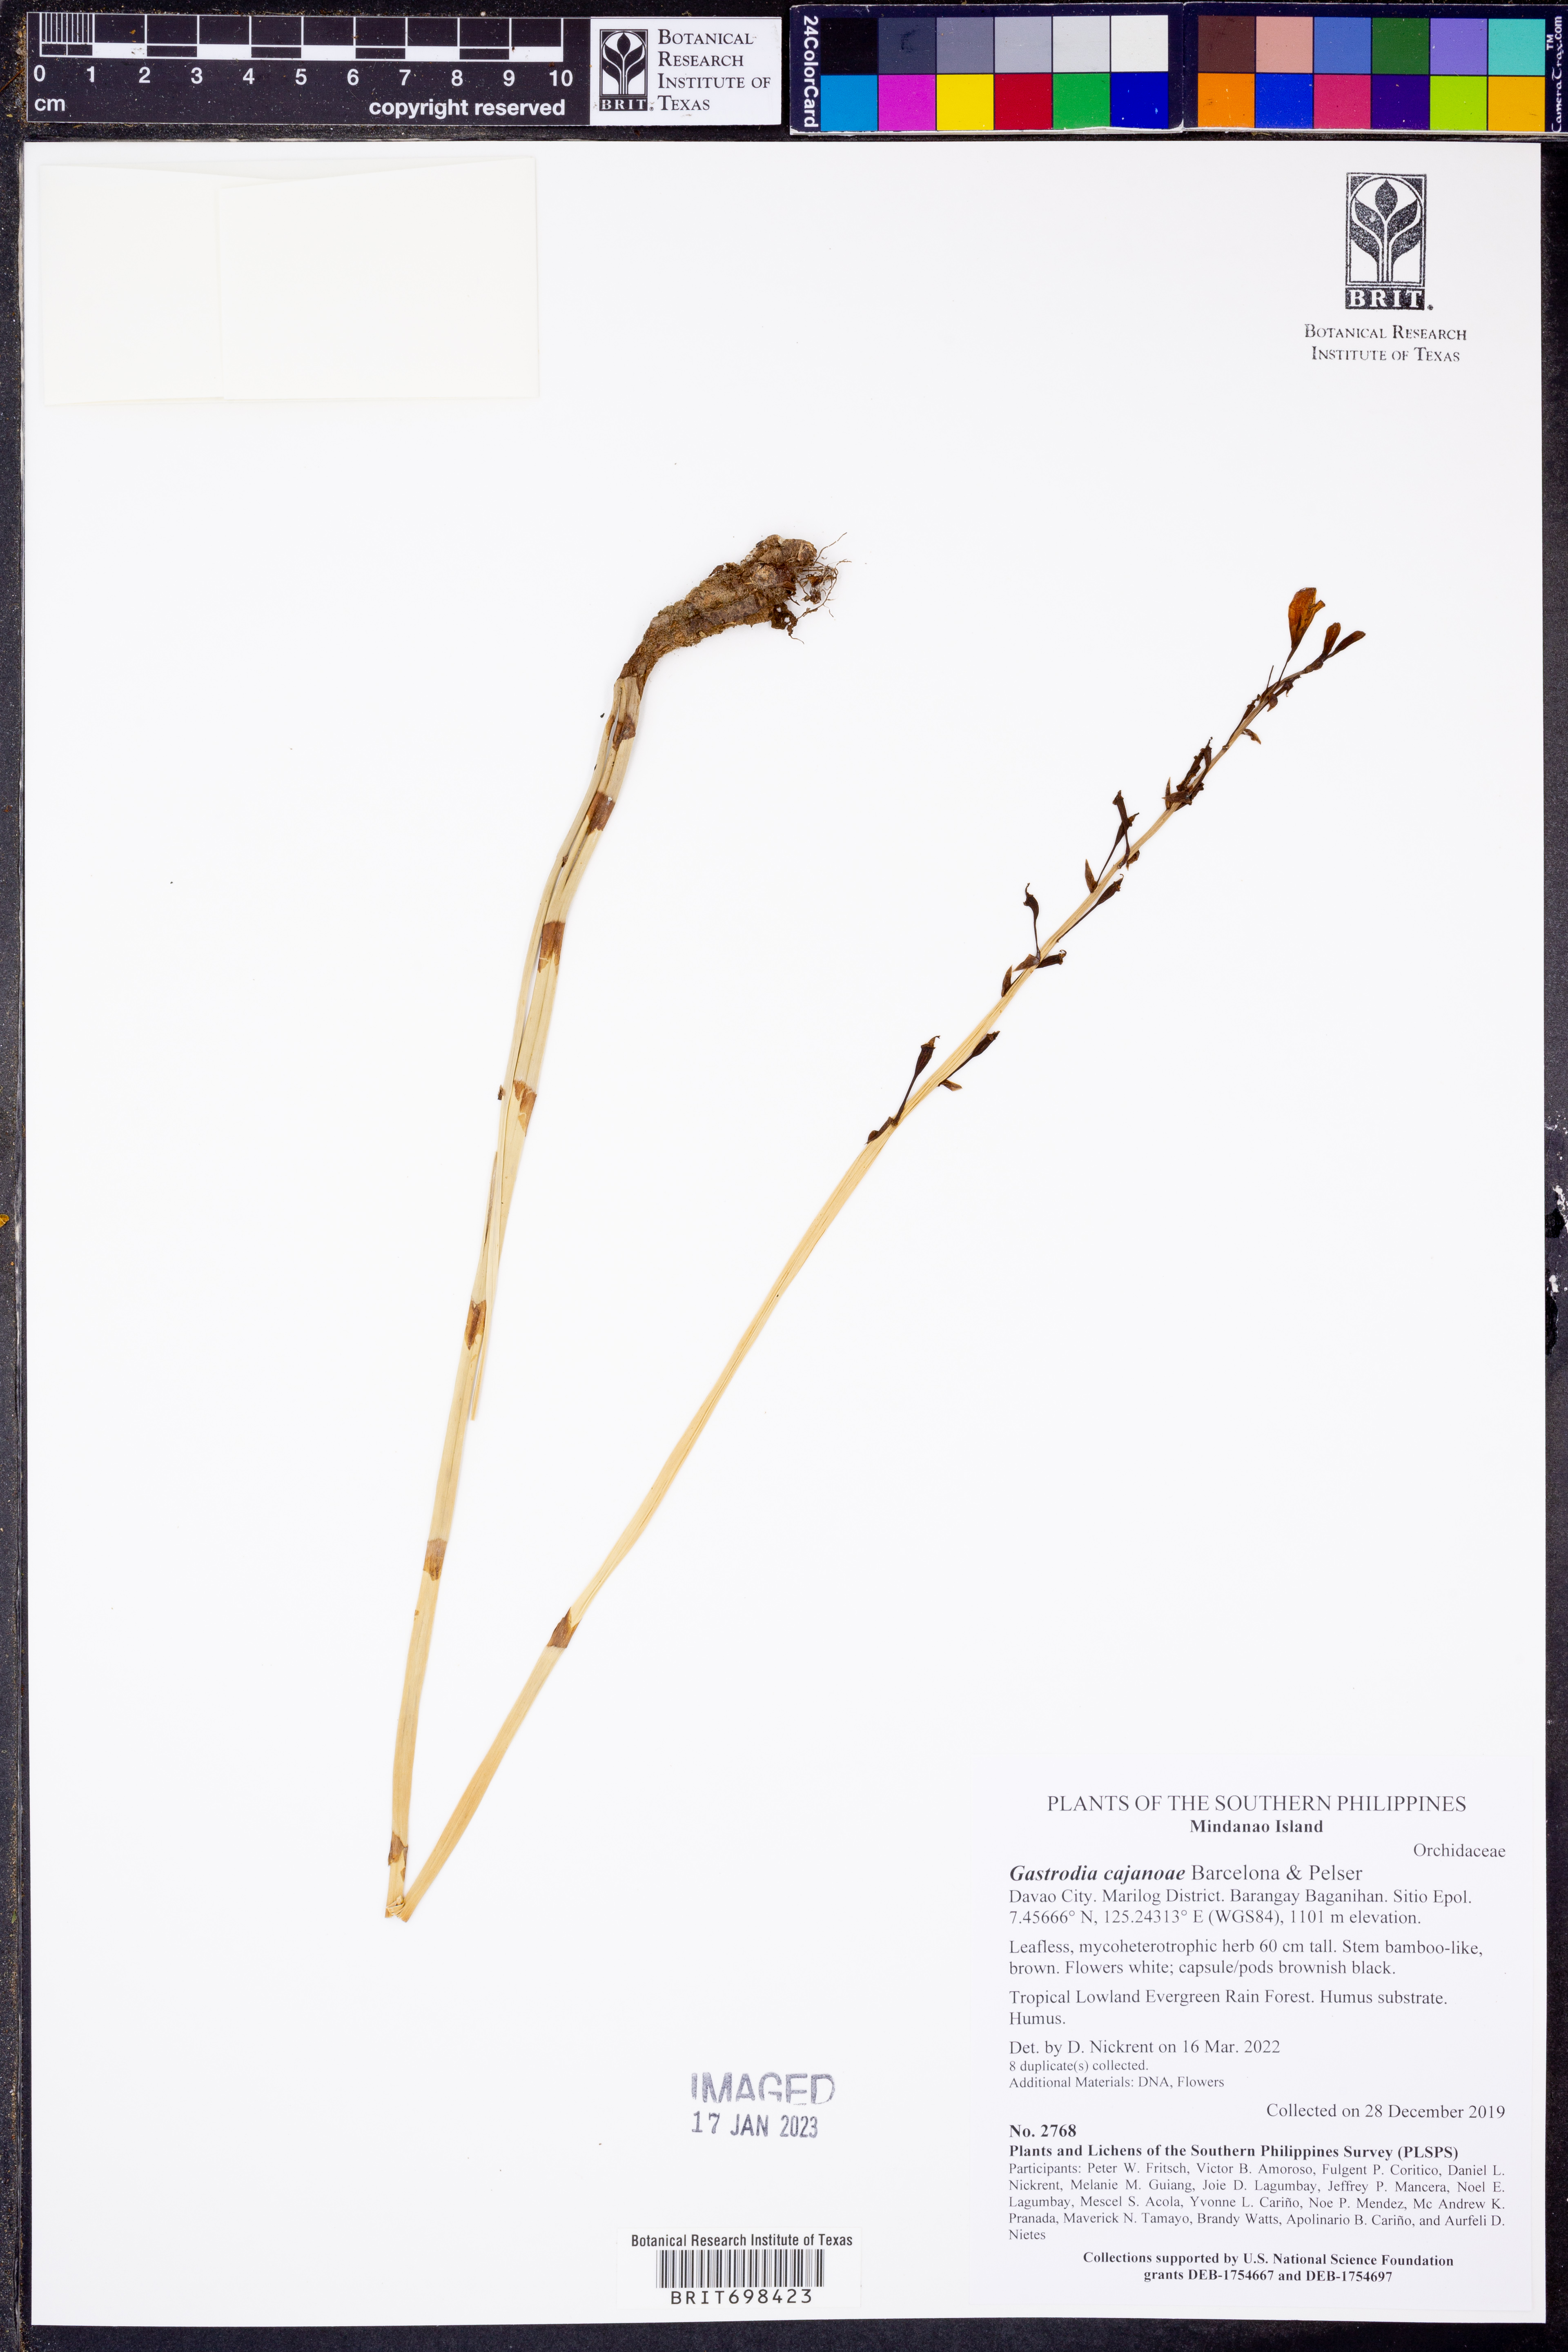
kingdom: Plantae
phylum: Tracheophyta
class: Liliopsida
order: Asparagales
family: Orchidaceae
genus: Gastrodia
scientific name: Gastrodia cajanoae
